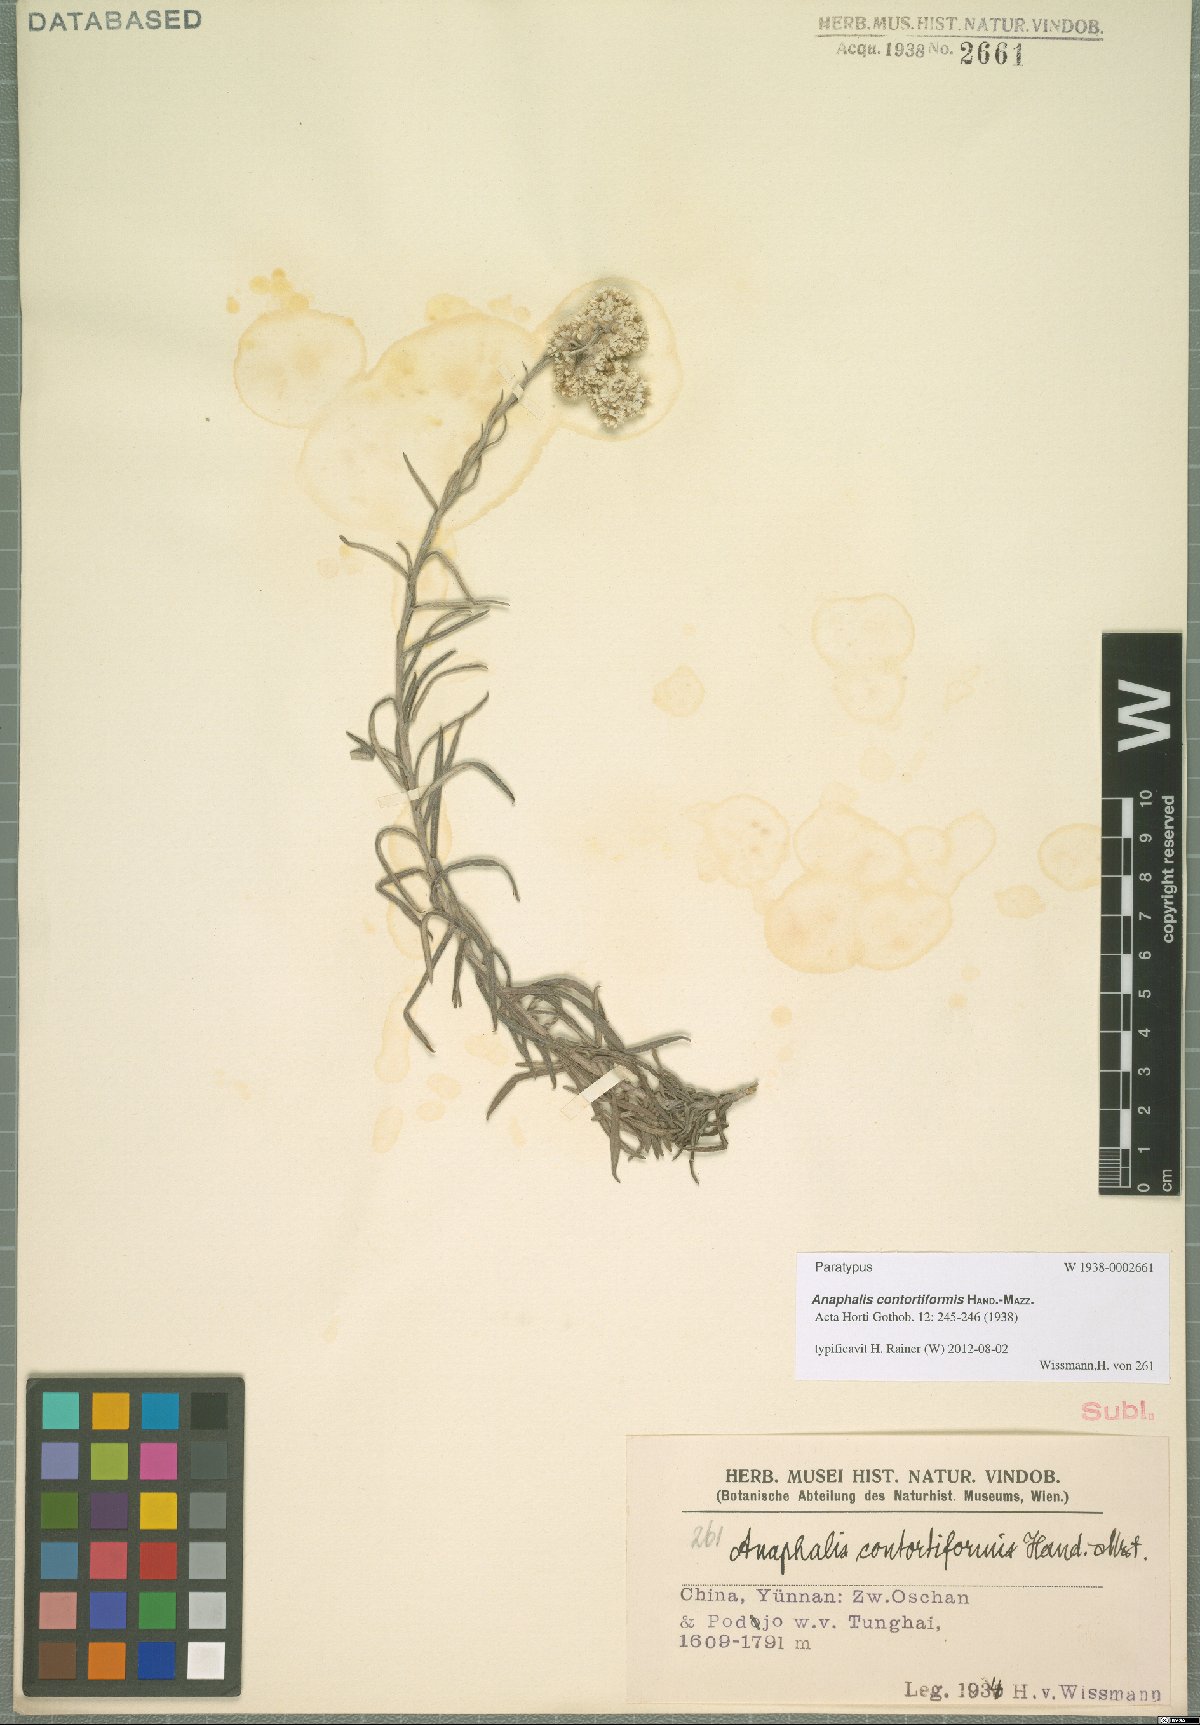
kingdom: Plantae
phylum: Tracheophyta
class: Magnoliopsida
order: Asterales
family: Asteraceae
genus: Anaphalis
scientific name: Anaphalis contortiformis
